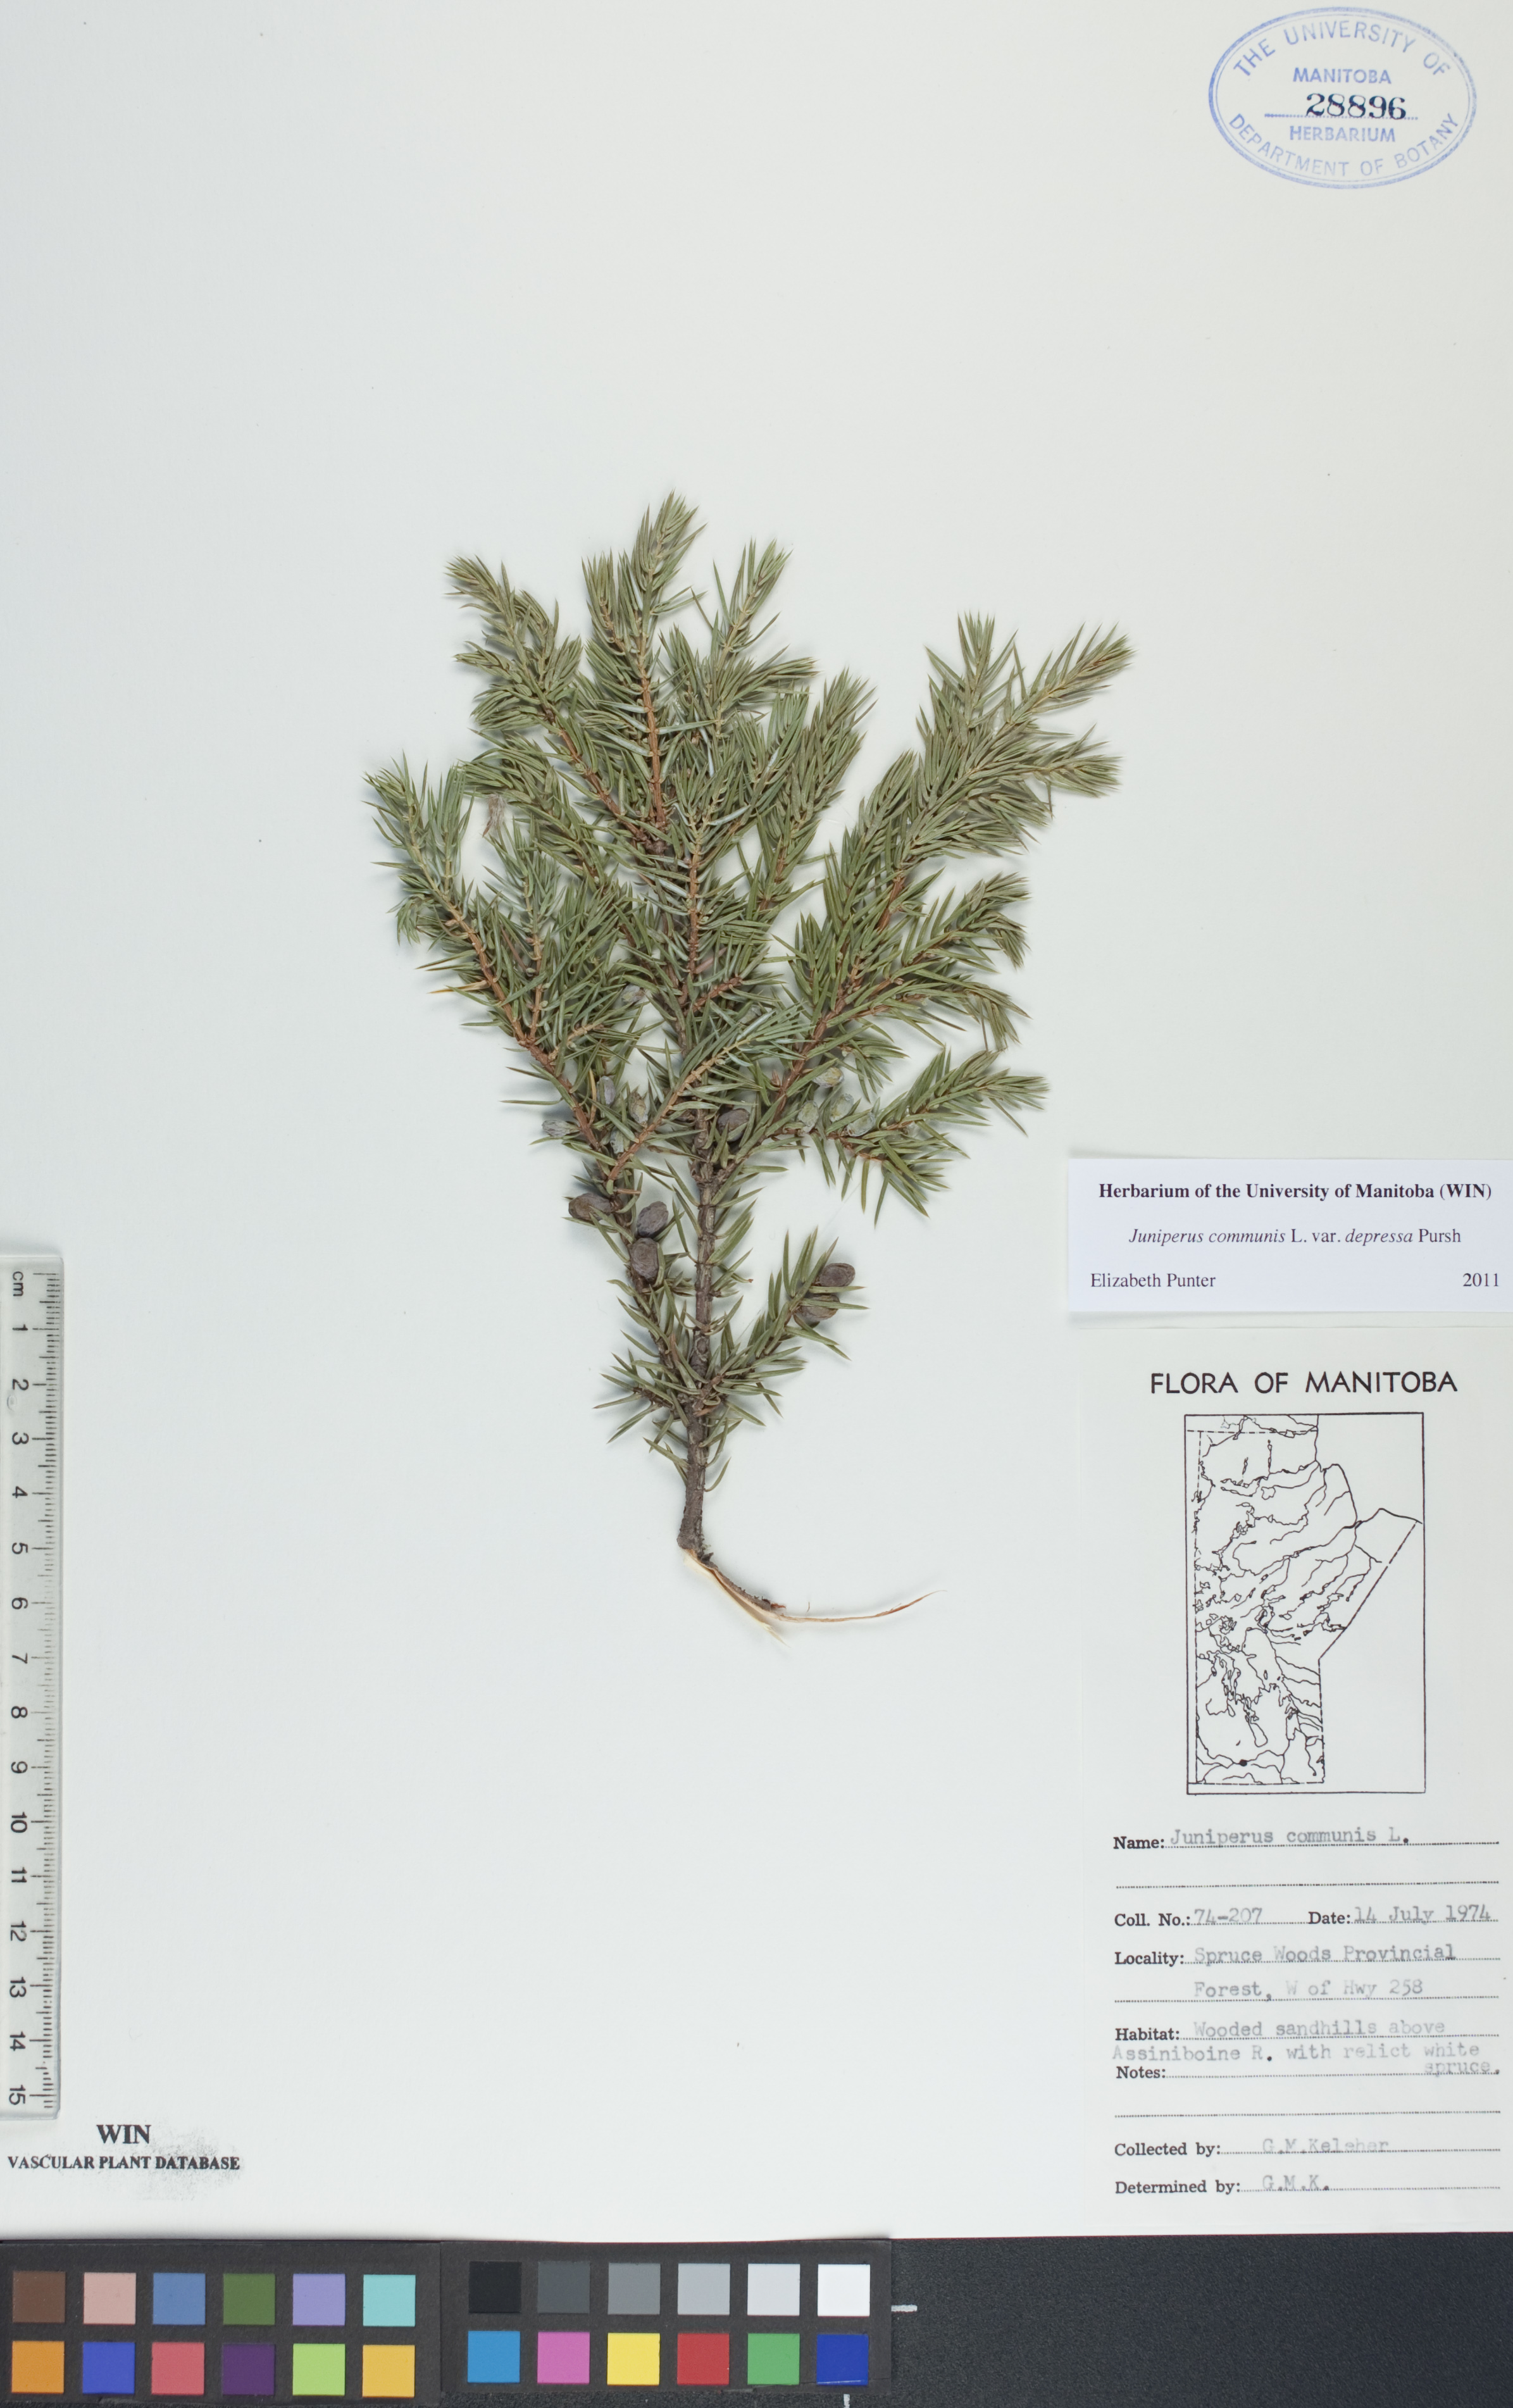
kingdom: Plantae
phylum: Tracheophyta
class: Pinopsida
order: Pinales
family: Cupressaceae
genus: Juniperus
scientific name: Juniperus communis
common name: Common juniper
